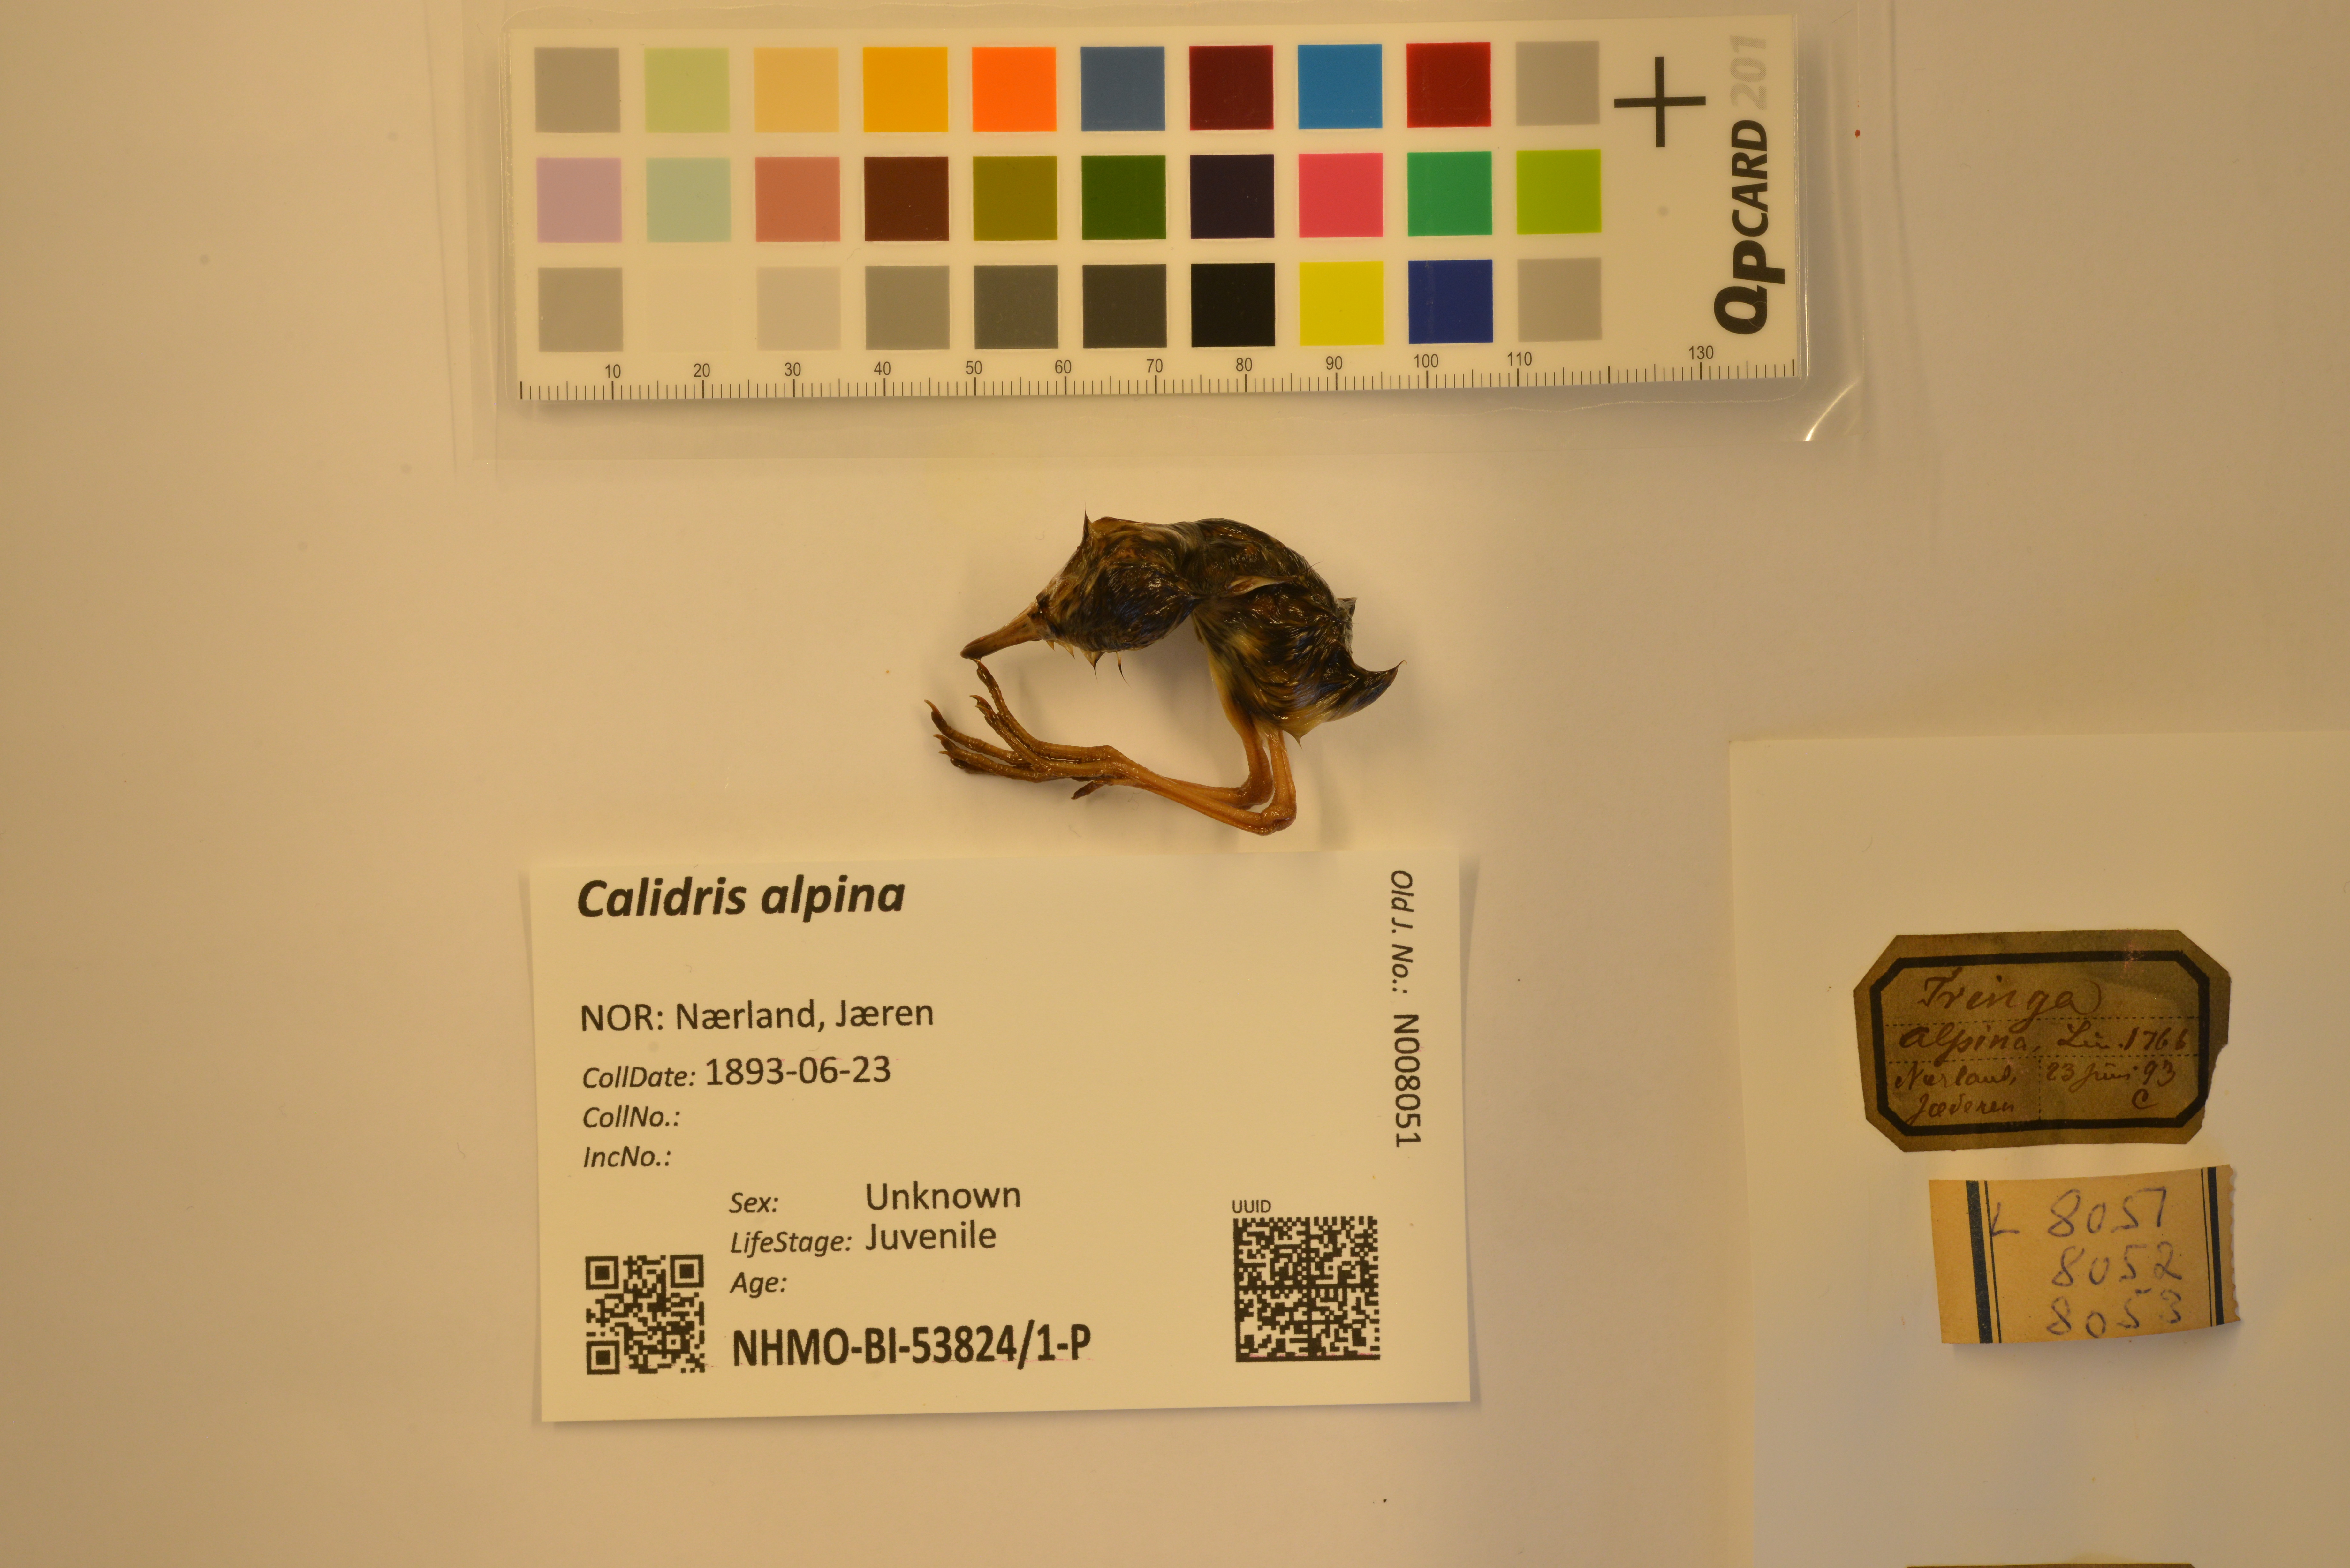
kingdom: Animalia
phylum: Chordata
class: Aves
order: Charadriiformes
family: Scolopacidae
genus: Calidris
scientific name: Calidris alpina
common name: Dunlin
